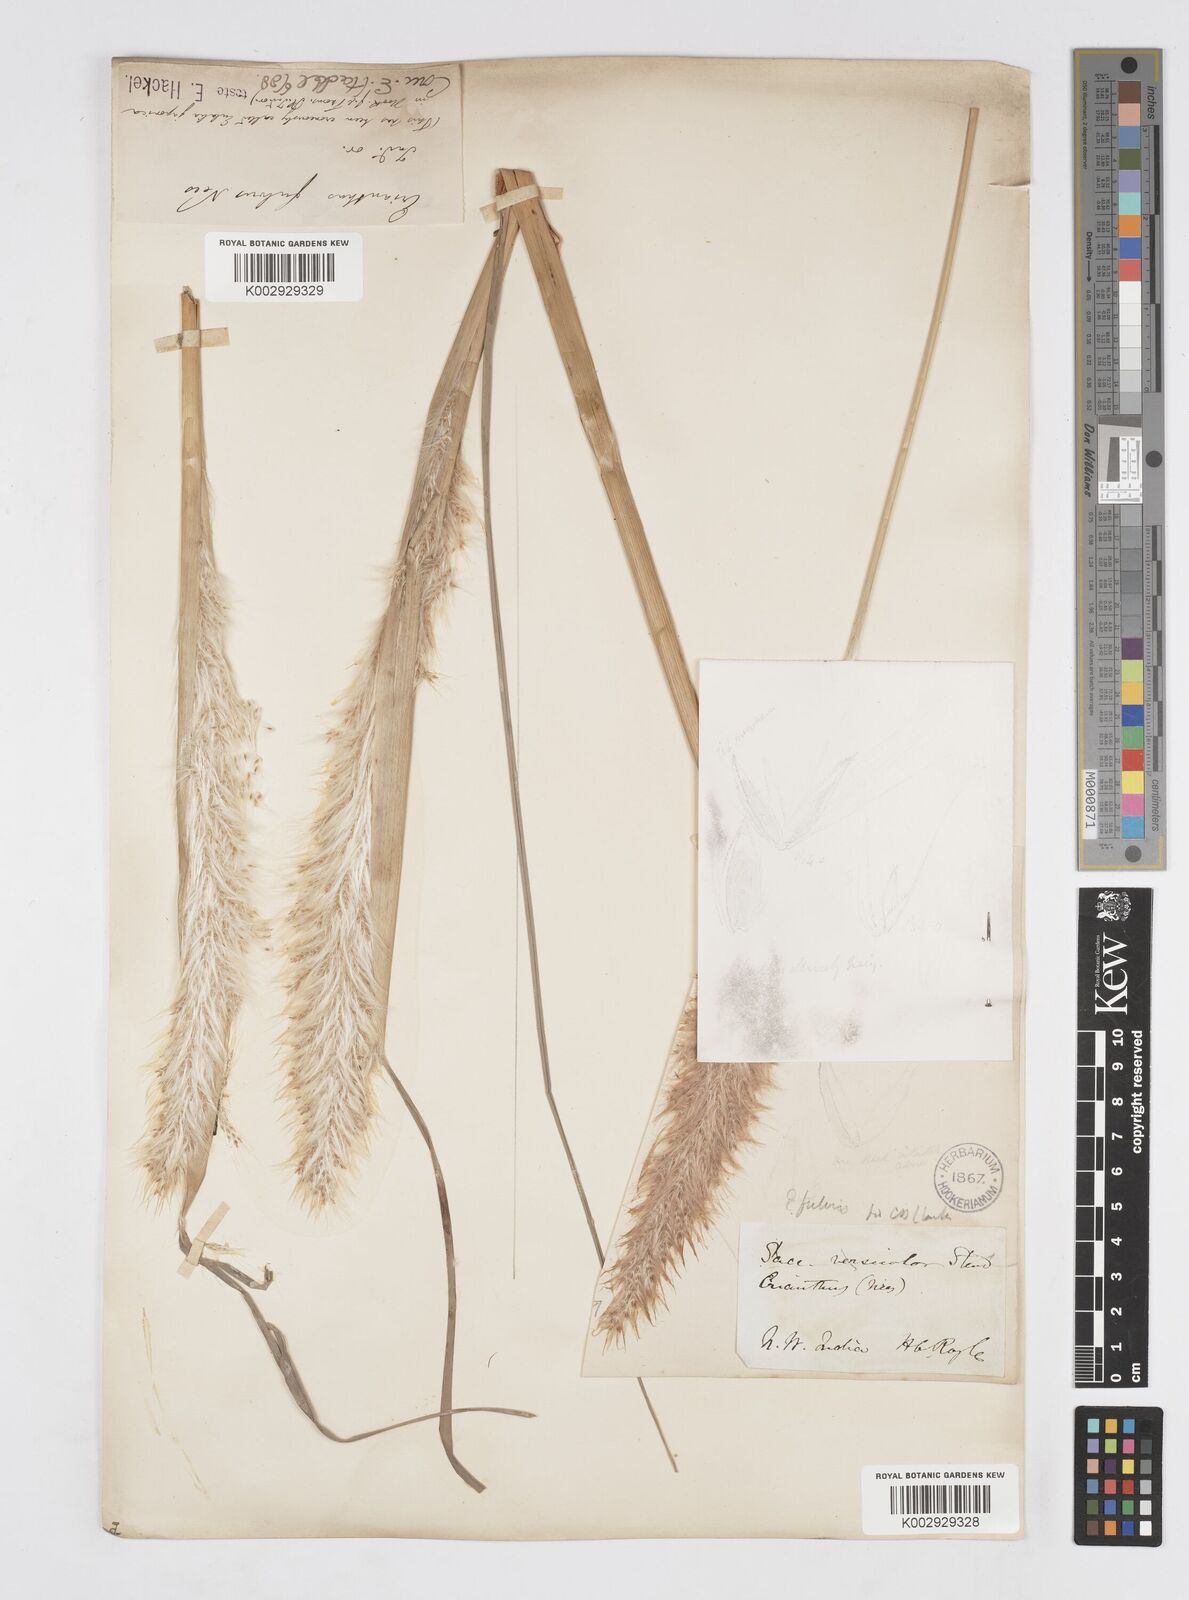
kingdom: Plantae
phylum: Tracheophyta
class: Liliopsida
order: Poales
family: Poaceae
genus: Tripidium
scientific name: Tripidium rufipilum
